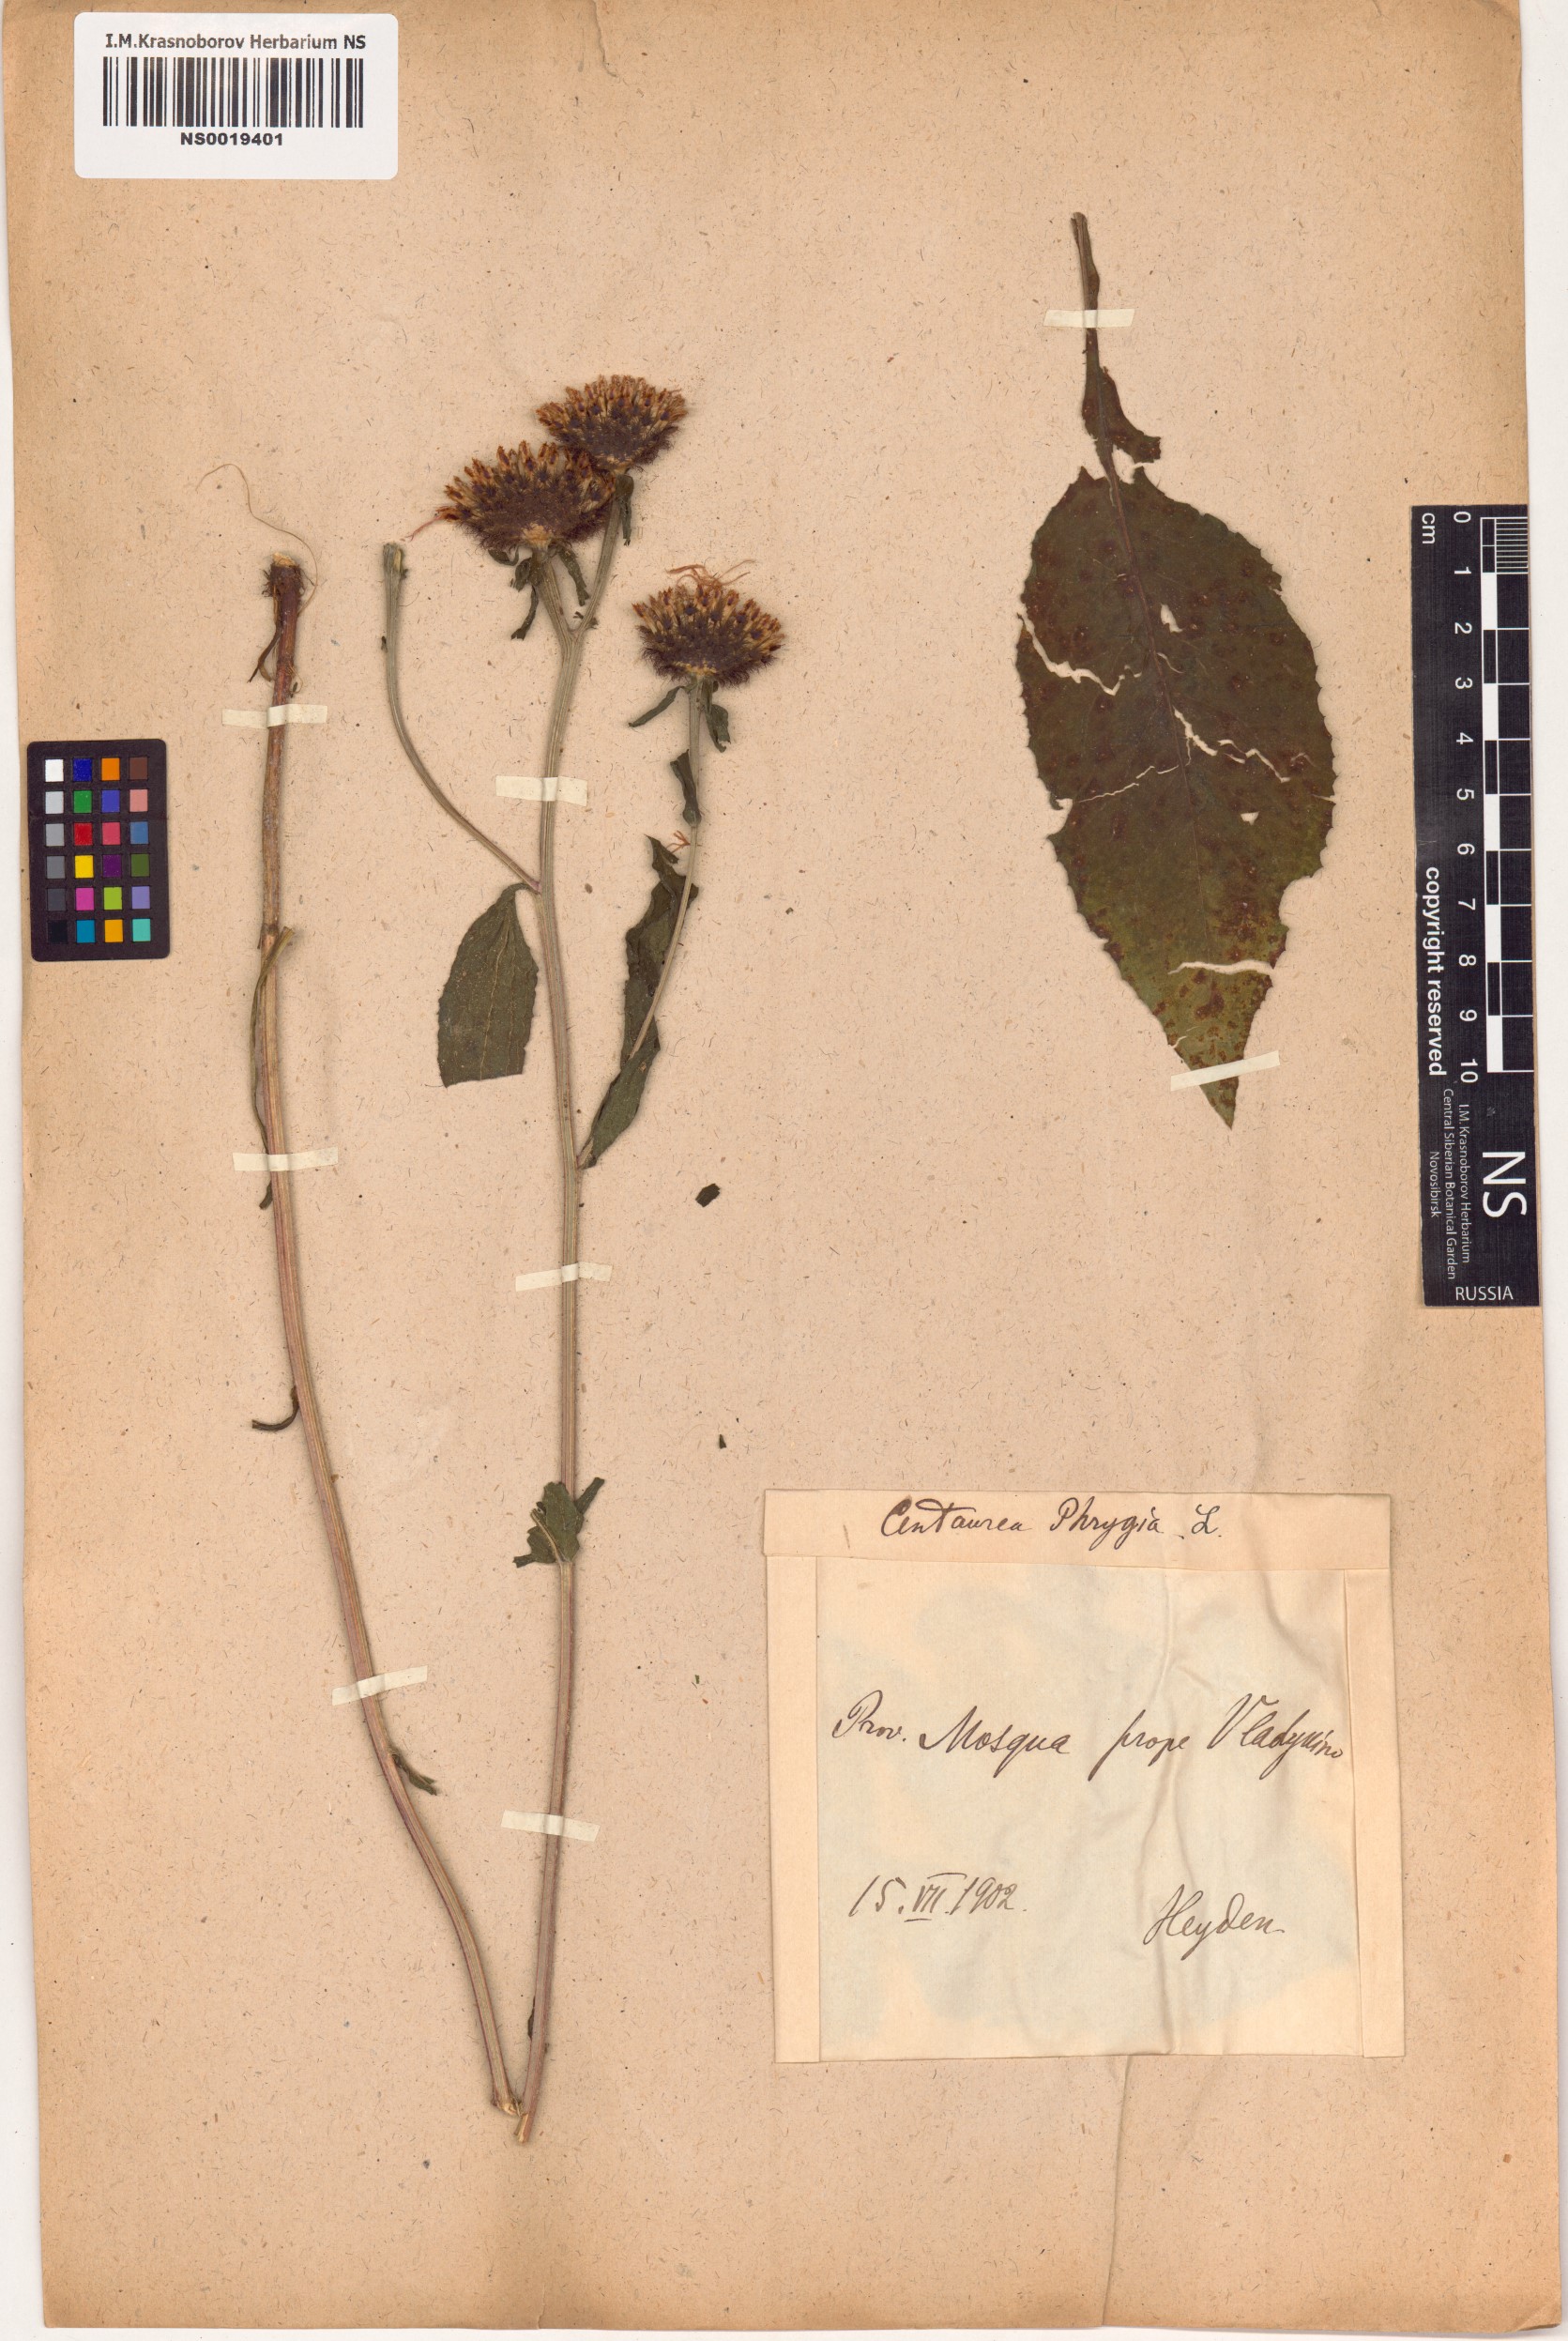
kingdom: Plantae
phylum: Tracheophyta
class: Magnoliopsida
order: Asterales
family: Asteraceae
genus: Centaurea
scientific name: Centaurea phrygia
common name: Wig knapweed
